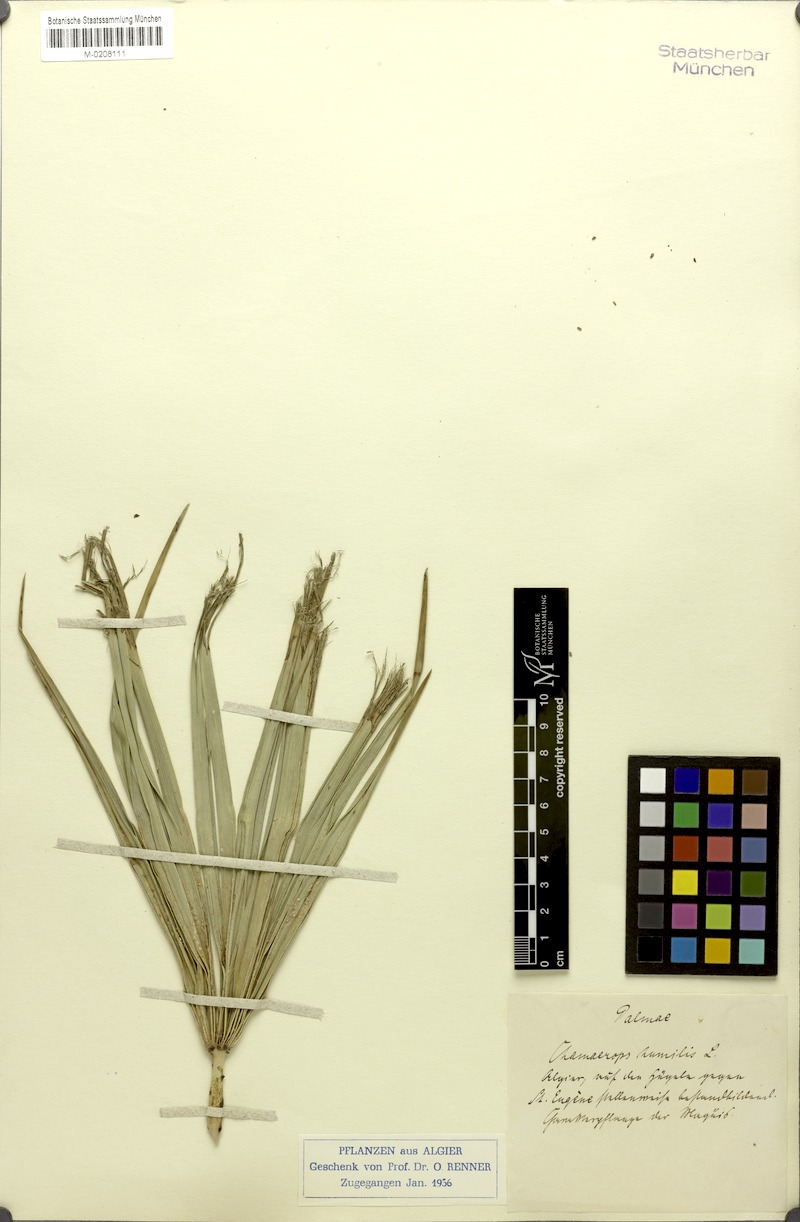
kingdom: Plantae
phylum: Tracheophyta
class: Liliopsida
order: Arecales
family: Arecaceae
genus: Chamaerops
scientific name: Chamaerops humilis
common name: Dwarf fan palm
